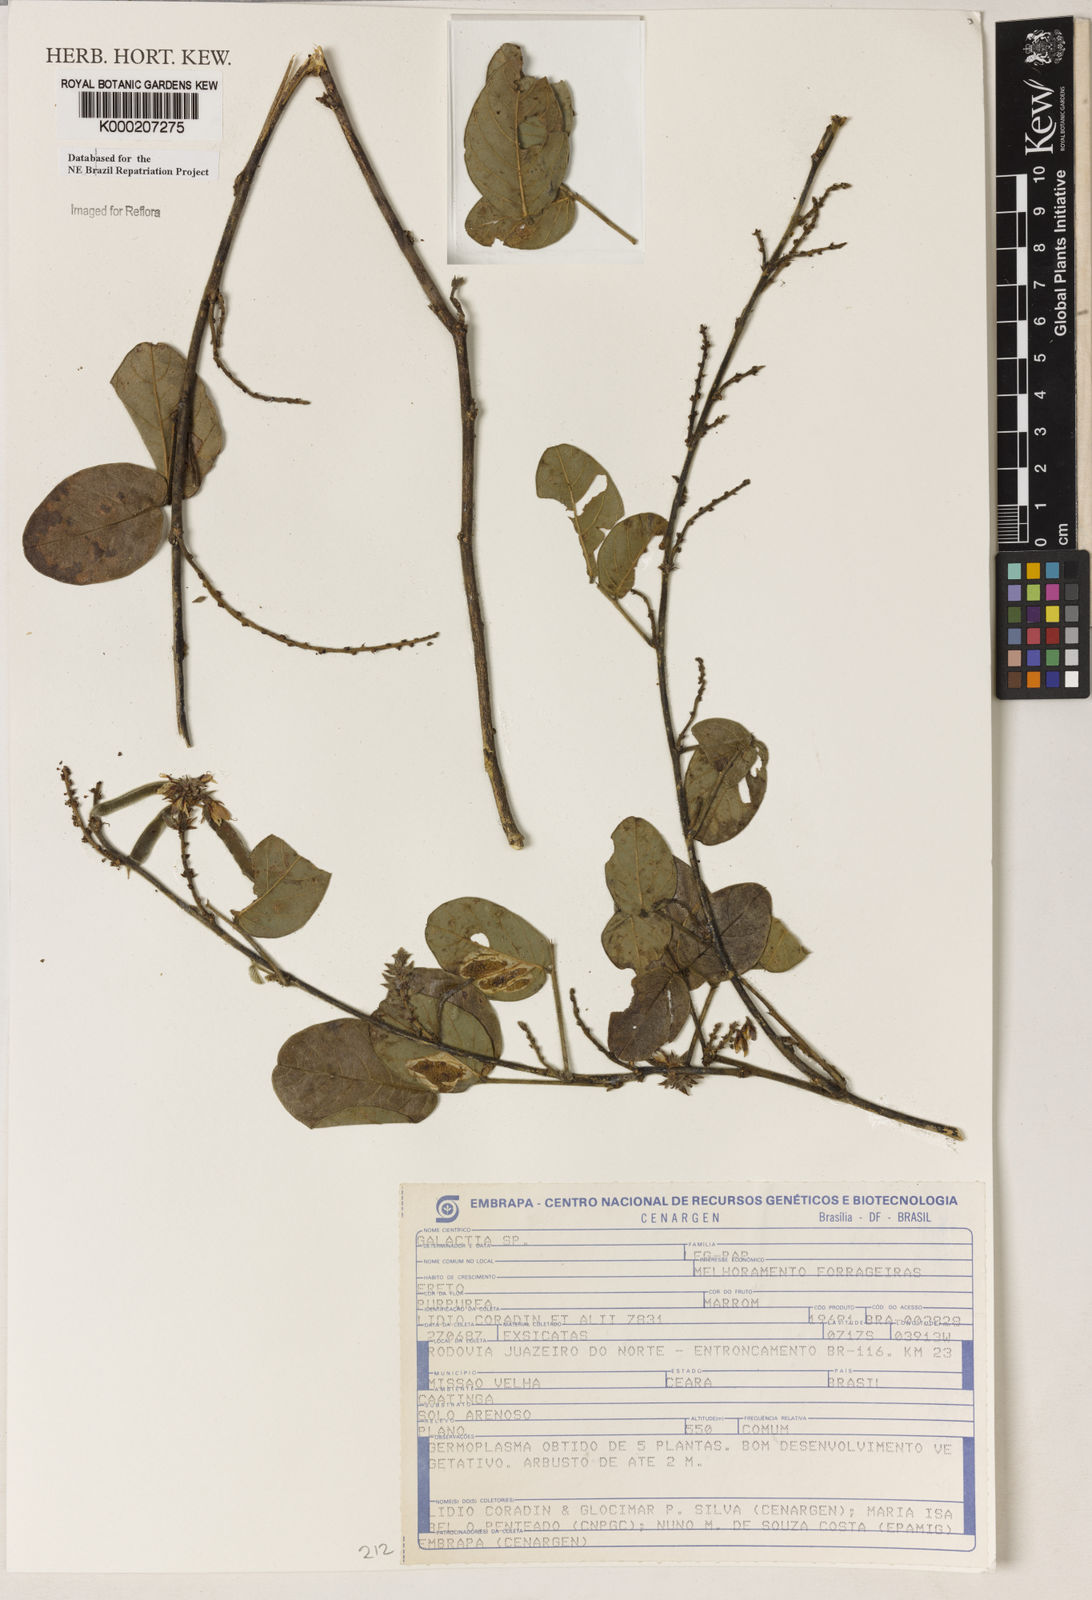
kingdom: Plantae
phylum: Tracheophyta
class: Magnoliopsida
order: Fabales
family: Fabaceae
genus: Galactia
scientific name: Galactia
